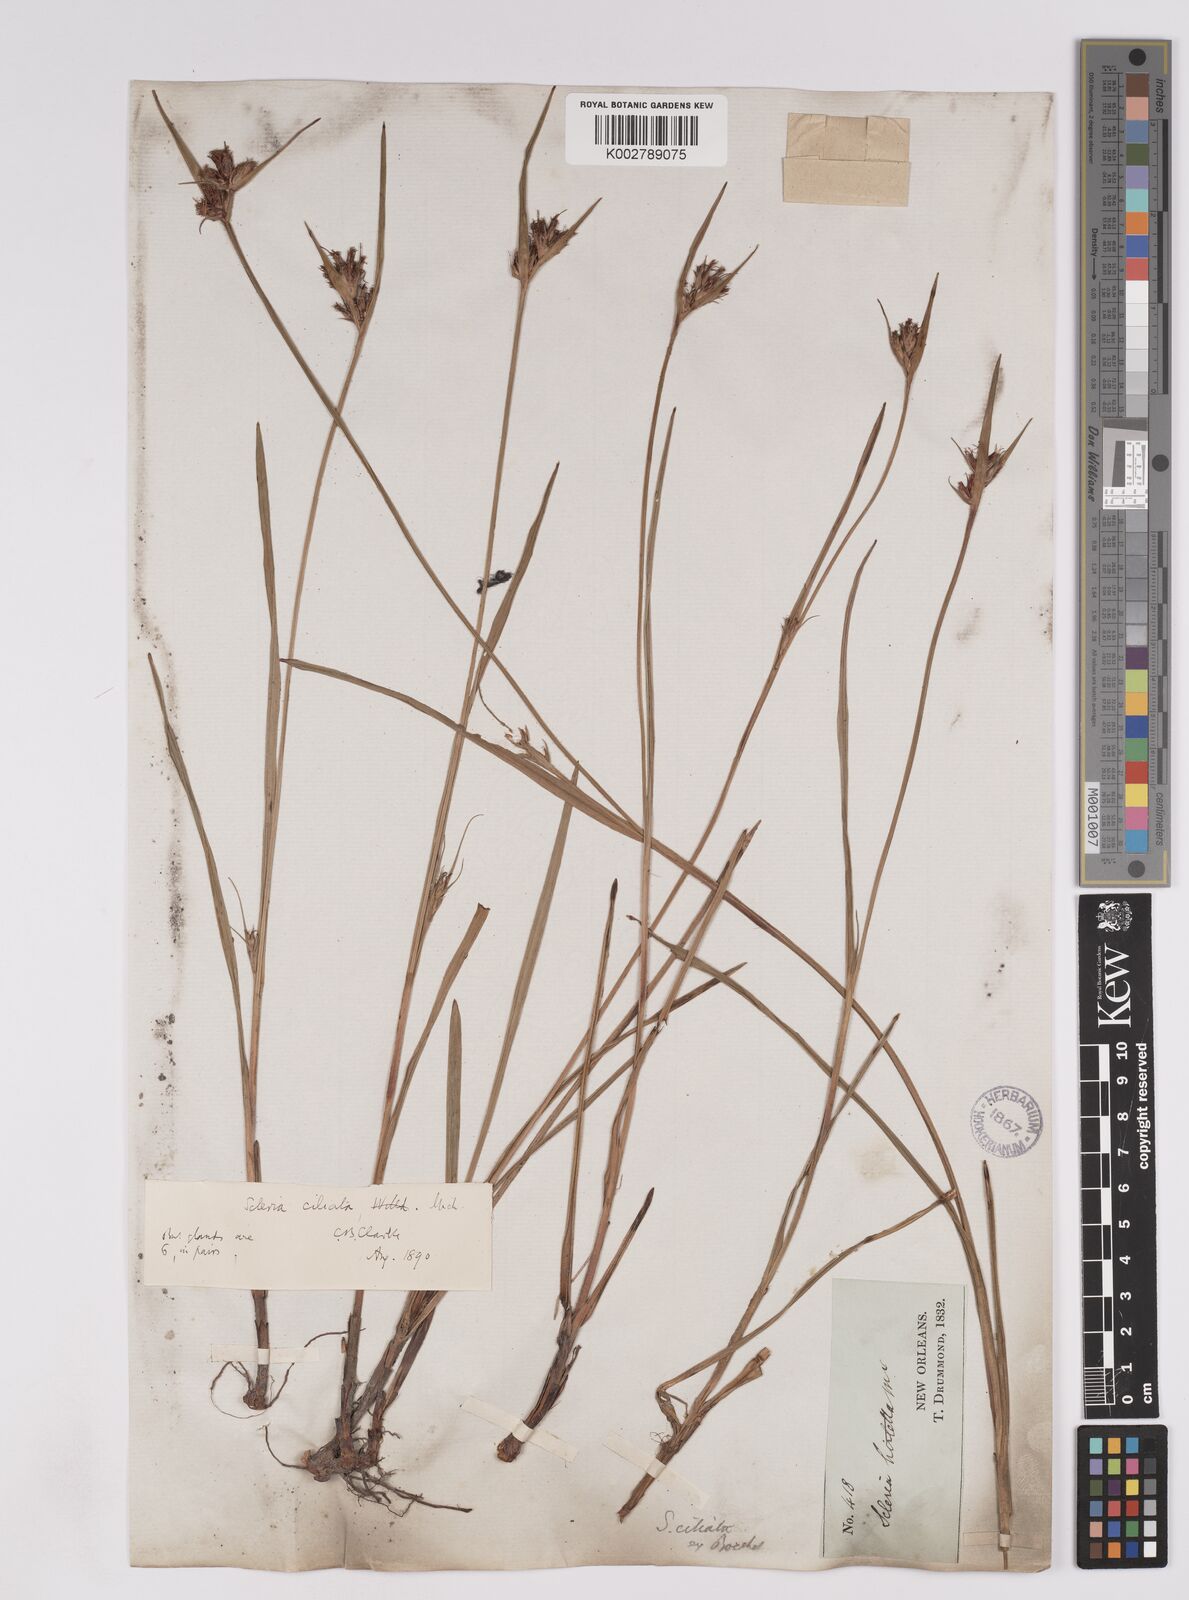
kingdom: Plantae
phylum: Tracheophyta
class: Liliopsida
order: Poales
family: Cyperaceae
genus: Scleria
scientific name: Scleria ciliata
